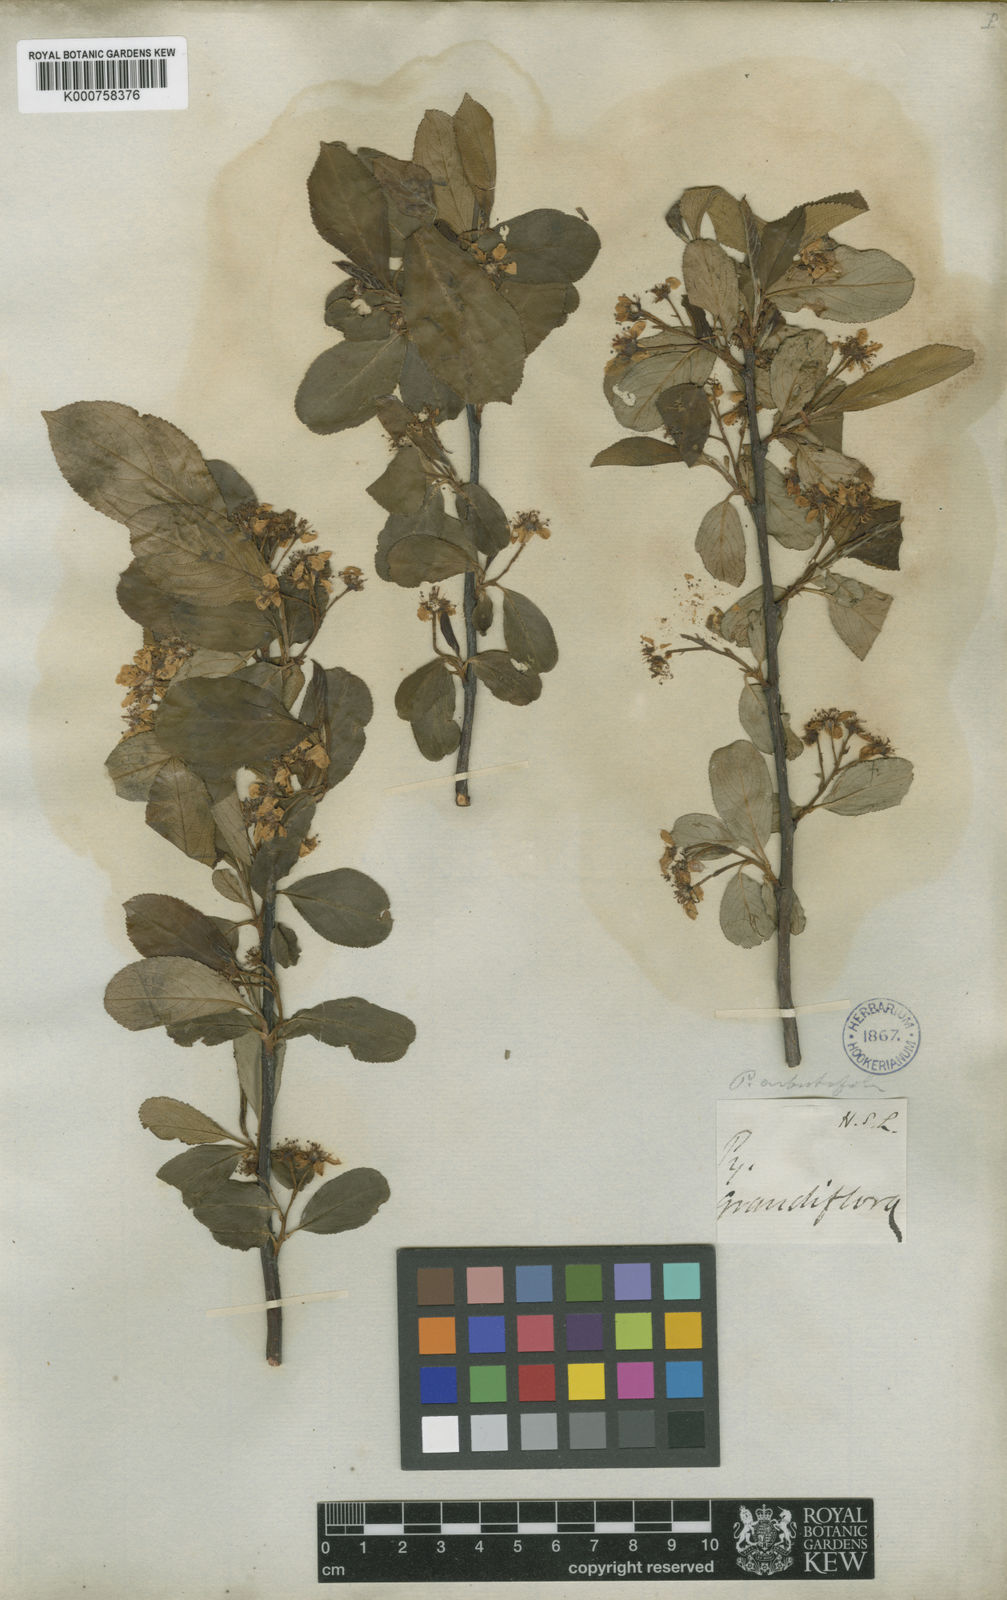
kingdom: Plantae
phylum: Tracheophyta
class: Magnoliopsida
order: Rosales
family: Rosaceae
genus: Aronia
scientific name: Aronia melanocarpa
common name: Black chokeberry
